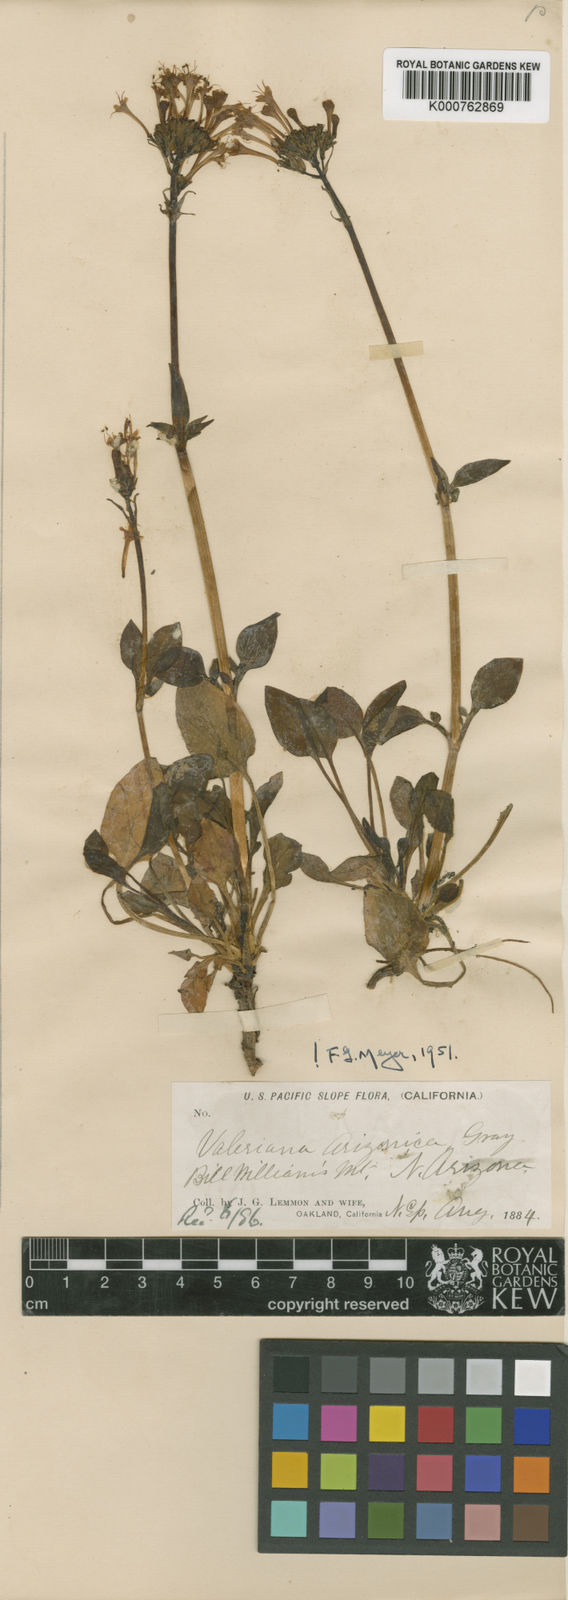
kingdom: Plantae
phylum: Tracheophyta
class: Magnoliopsida
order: Dipsacales
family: Caprifoliaceae
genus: Valeriana
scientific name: Valeriana arizonica
